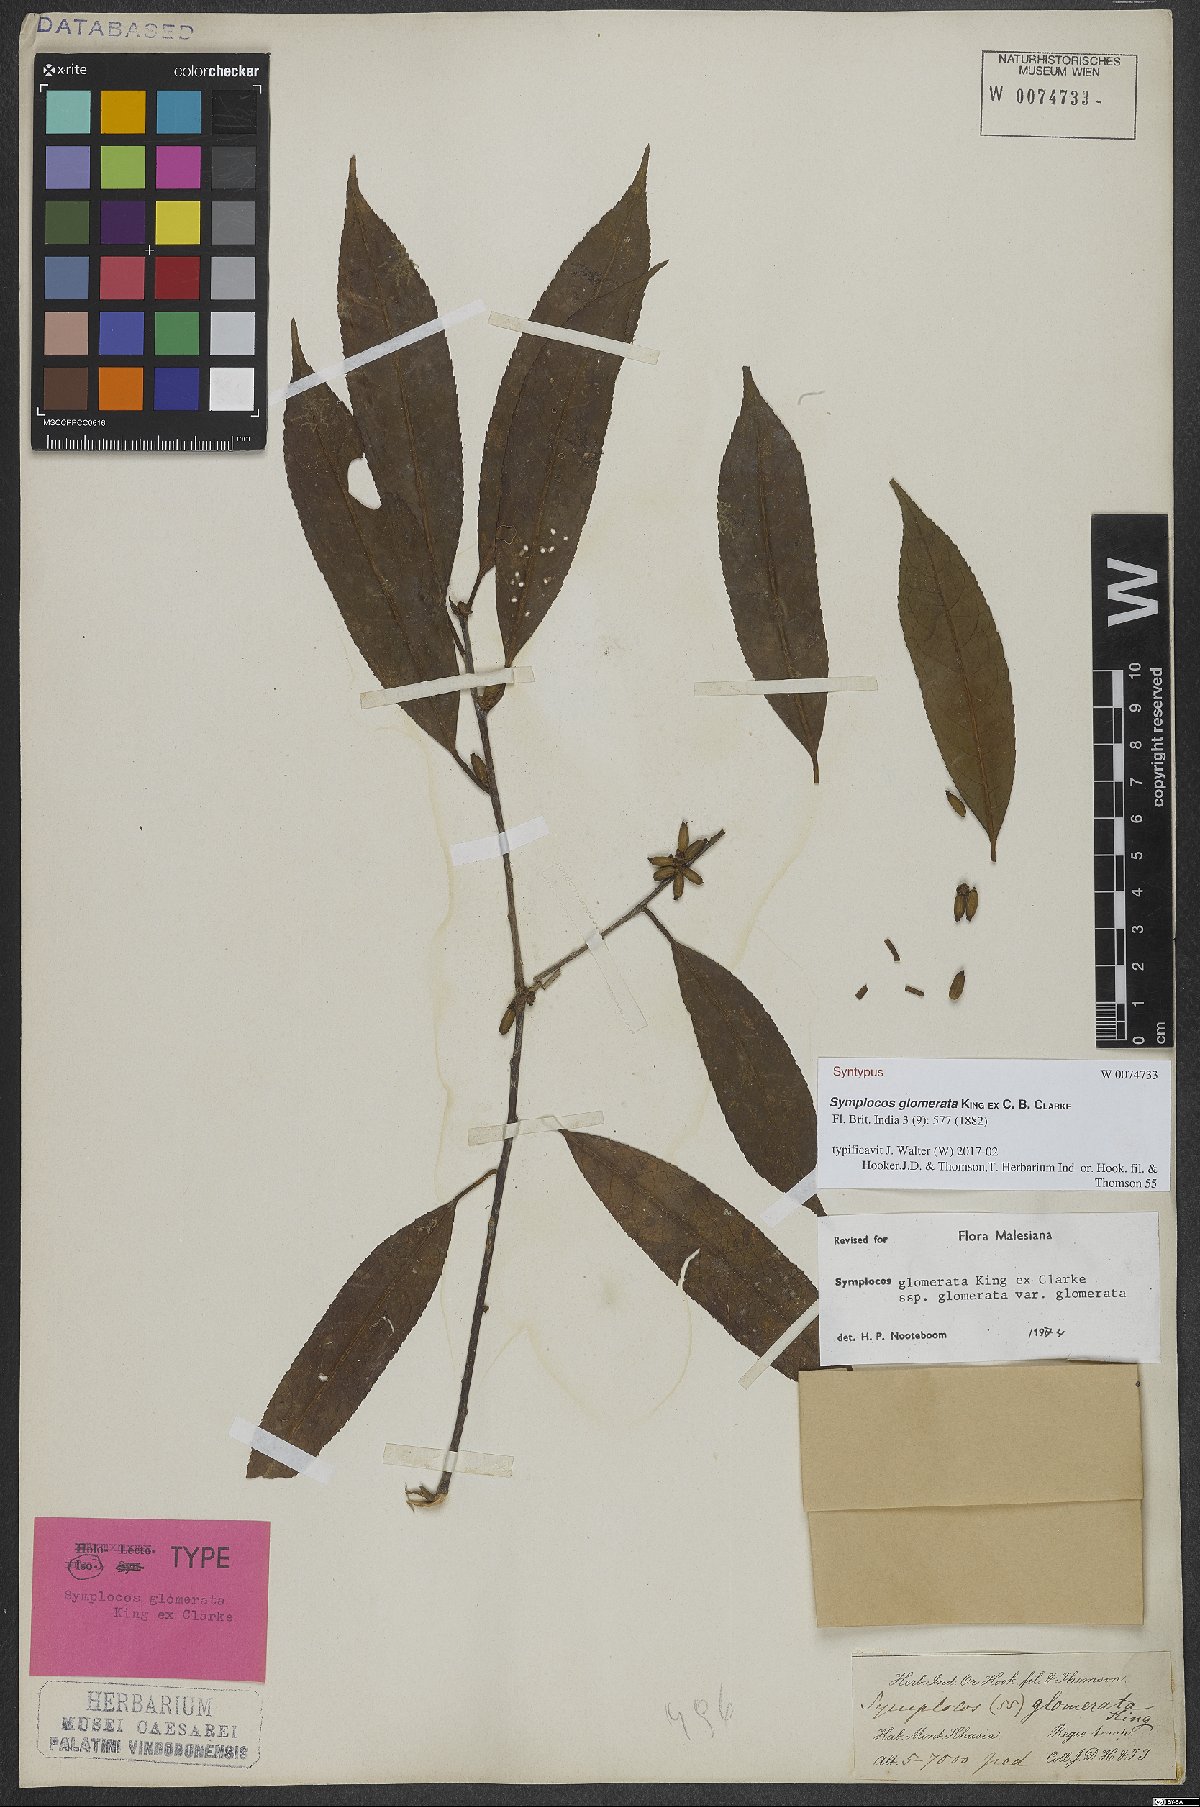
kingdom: Plantae
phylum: Tracheophyta
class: Magnoliopsida
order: Ericales
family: Symplocaceae
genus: Symplocos
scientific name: Symplocos glomerata
